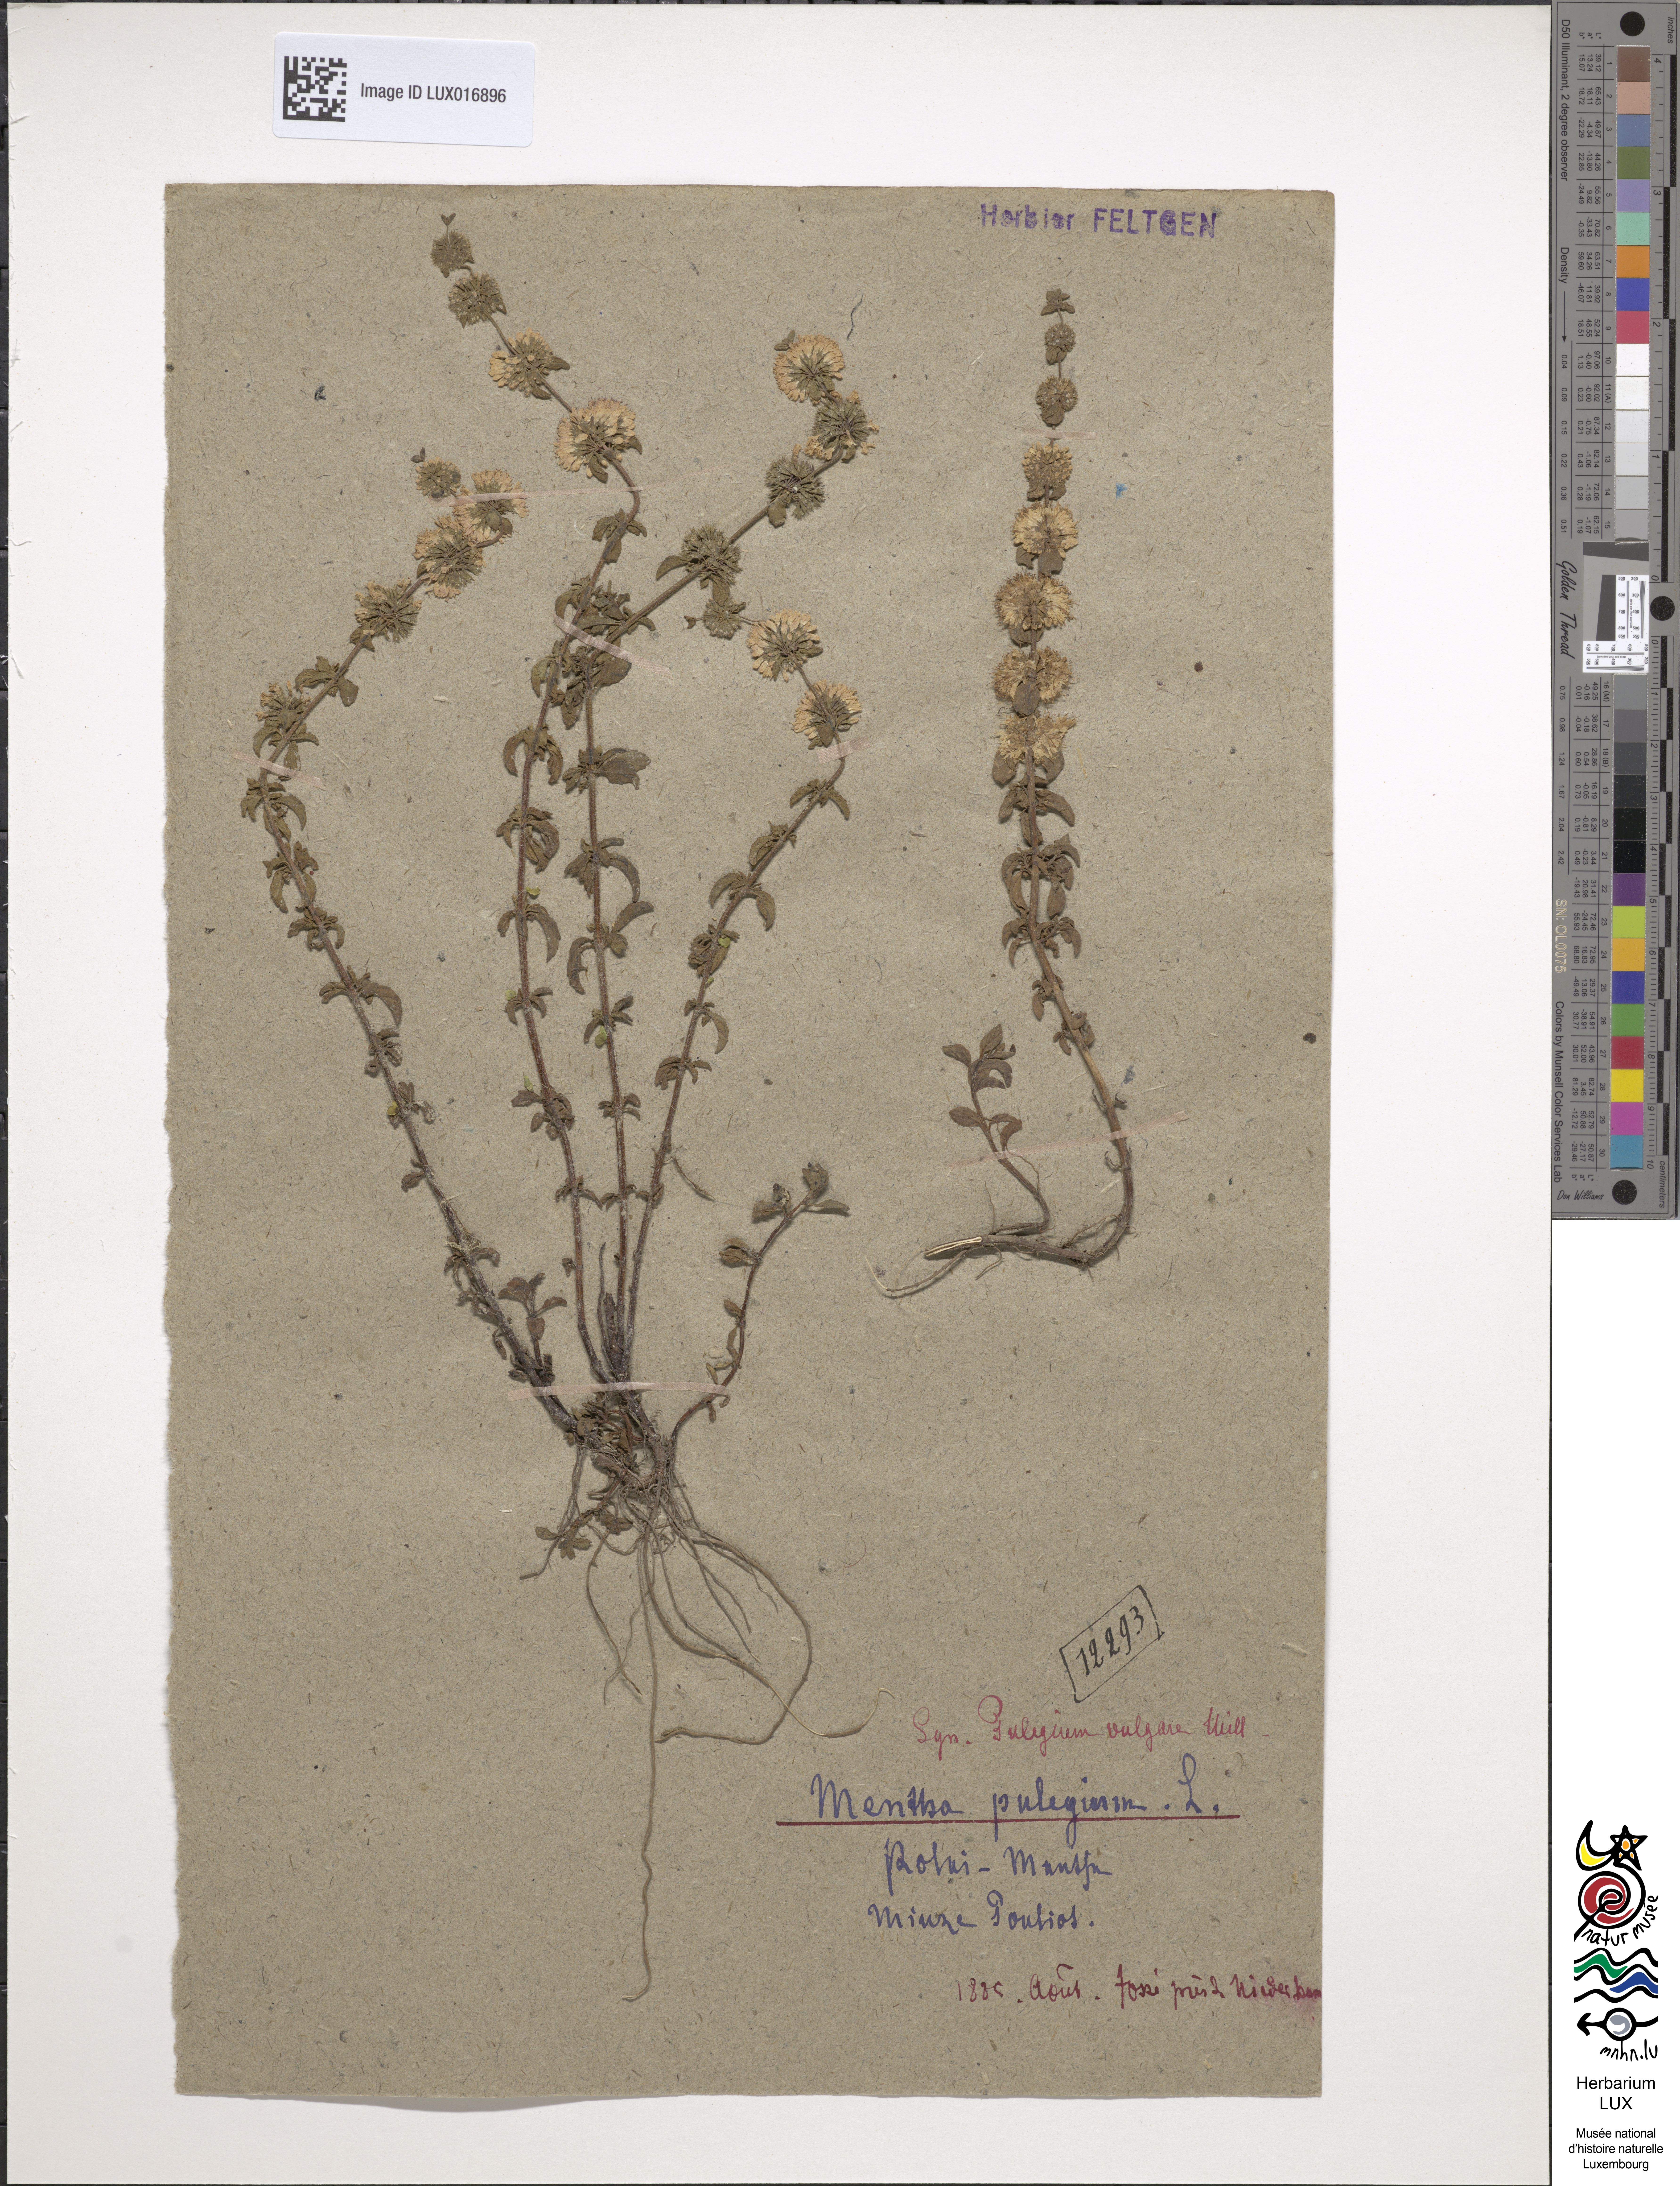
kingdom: Plantae
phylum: Tracheophyta
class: Magnoliopsida
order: Lamiales
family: Lamiaceae
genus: Mentha
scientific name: Mentha pulegium
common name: Pennyroyal
